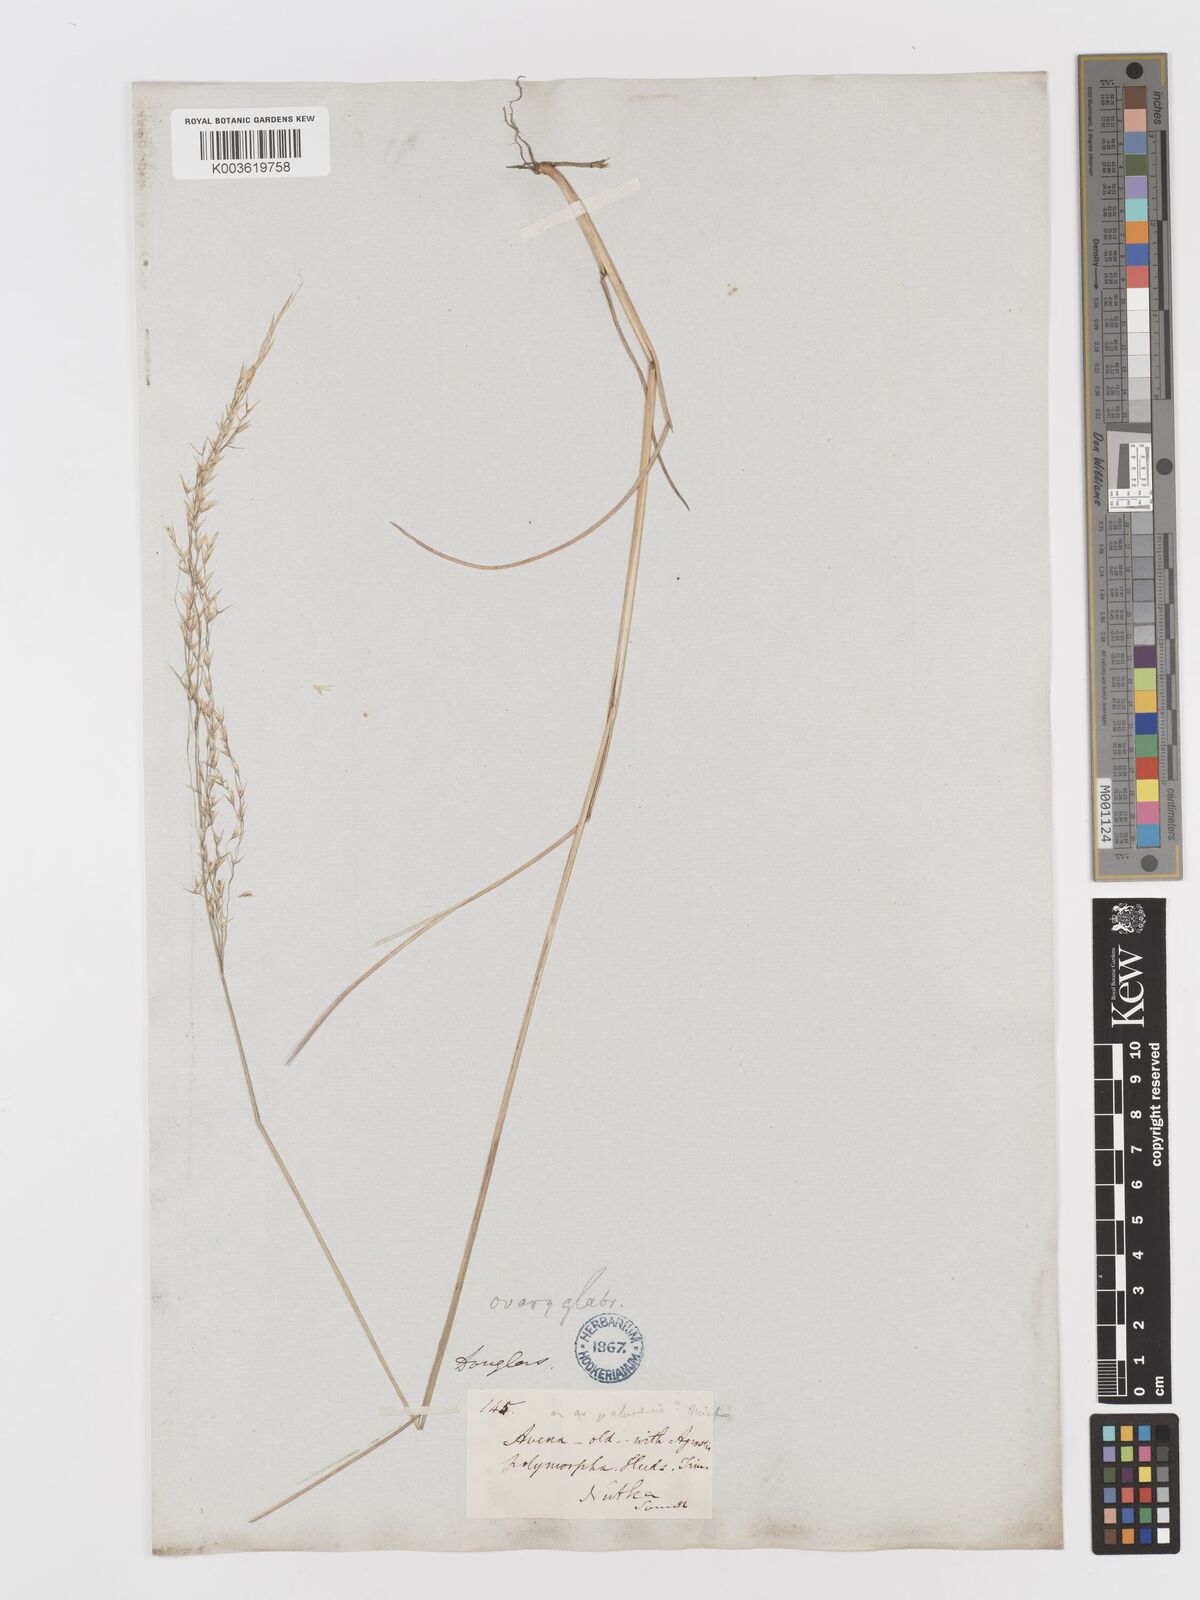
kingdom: Plantae
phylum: Tracheophyta
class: Liliopsida
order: Poales
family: Poaceae
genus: Sphenopholis
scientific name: Sphenopholis pensylvanica
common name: Swamp oats
